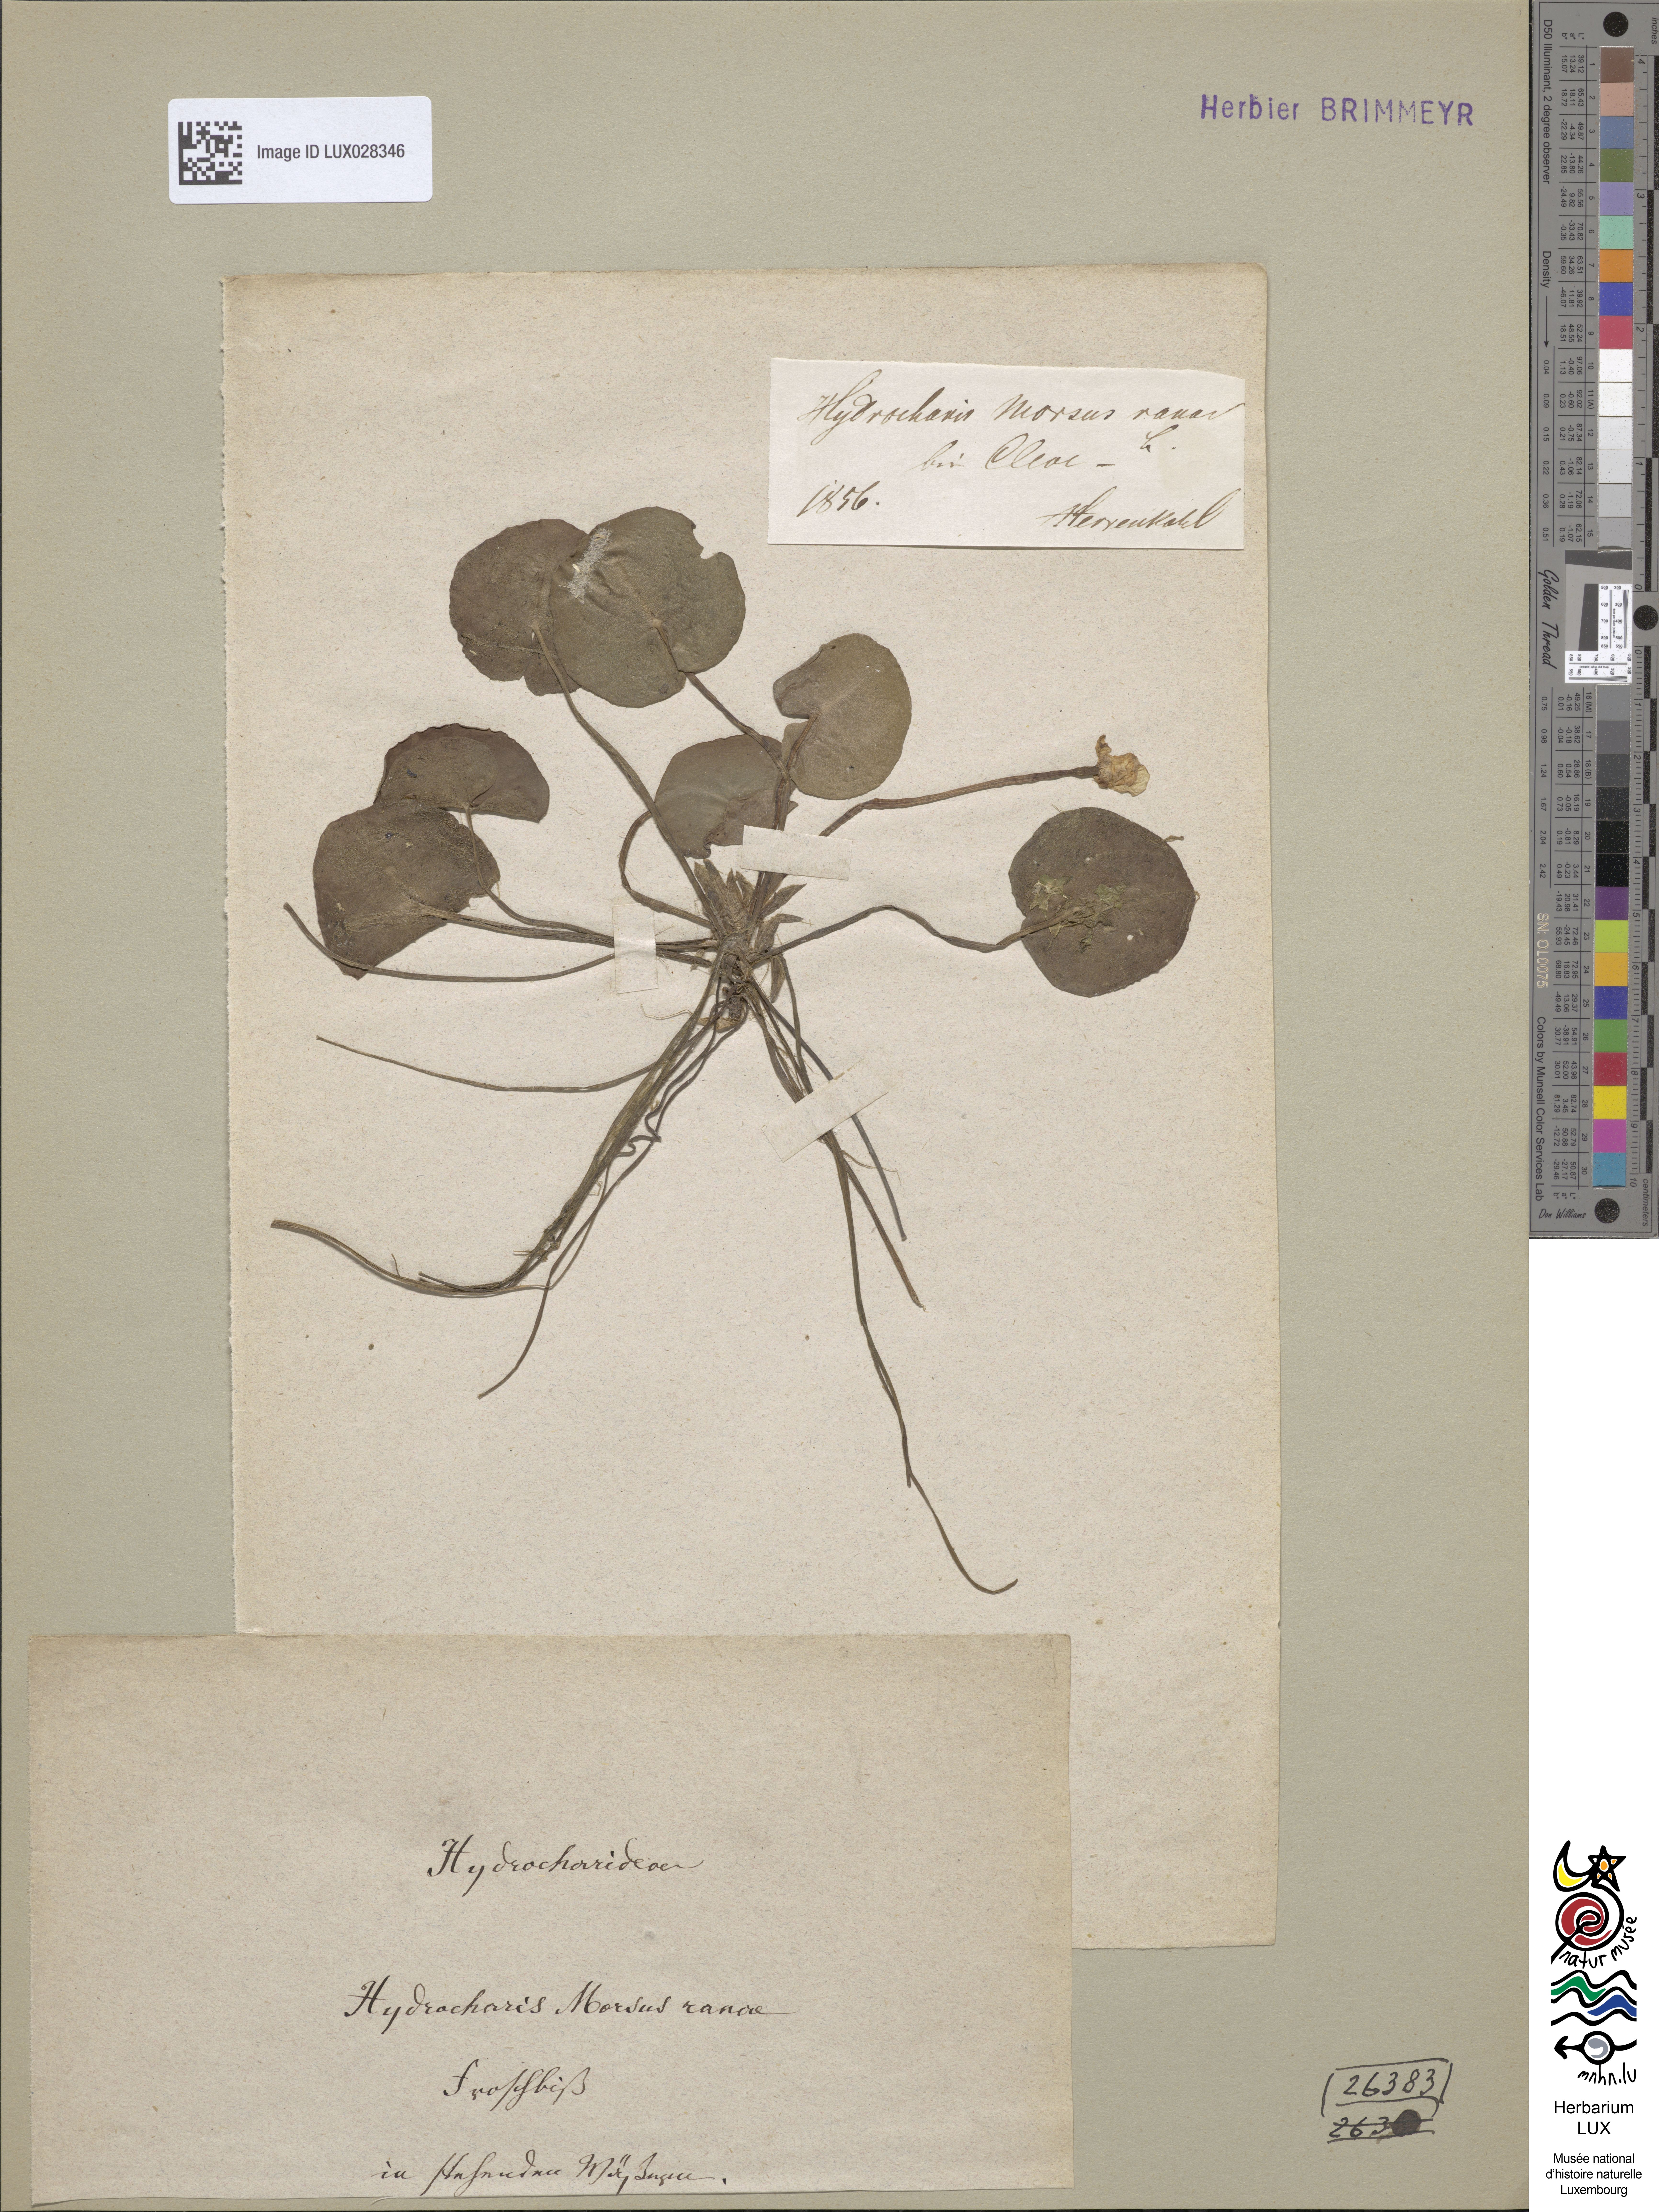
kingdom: Plantae
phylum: Tracheophyta
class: Liliopsida
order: Alismatales
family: Hydrocharitaceae
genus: Hydrocharis
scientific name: Hydrocharis morsus-ranae
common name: Frogbit
